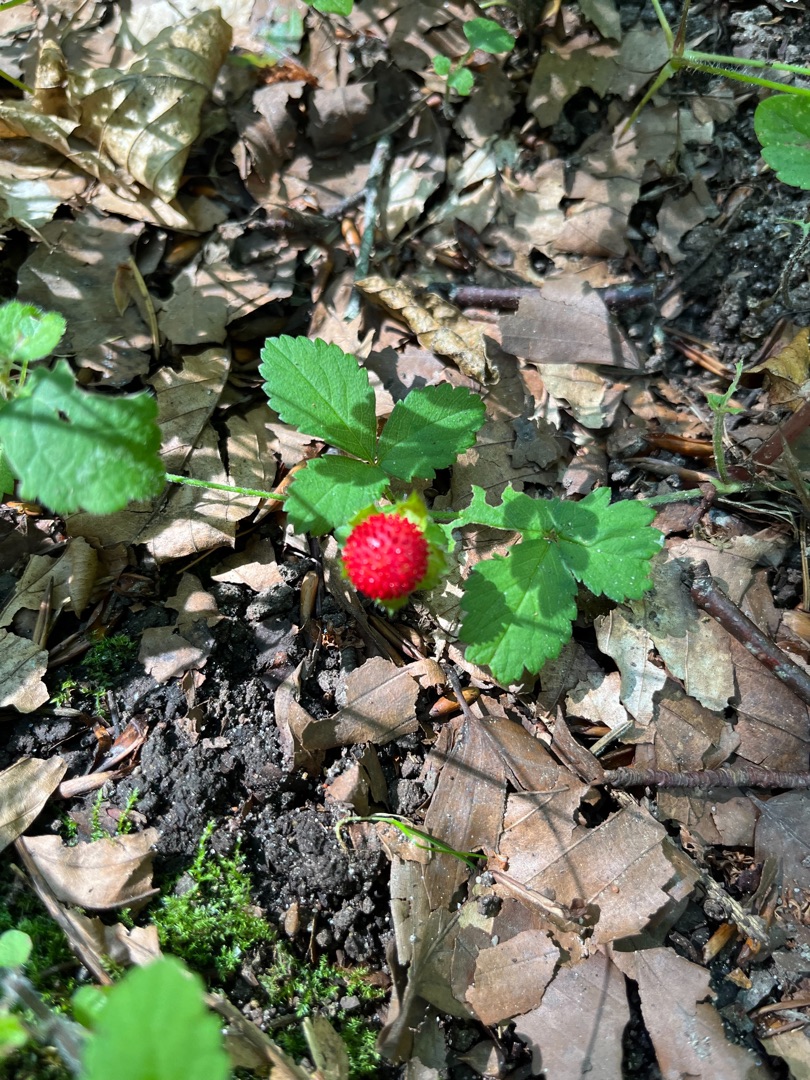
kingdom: Plantae
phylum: Tracheophyta
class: Magnoliopsida
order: Rosales
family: Rosaceae
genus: Potentilla
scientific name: Potentilla indica
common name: Indisk jordbær
